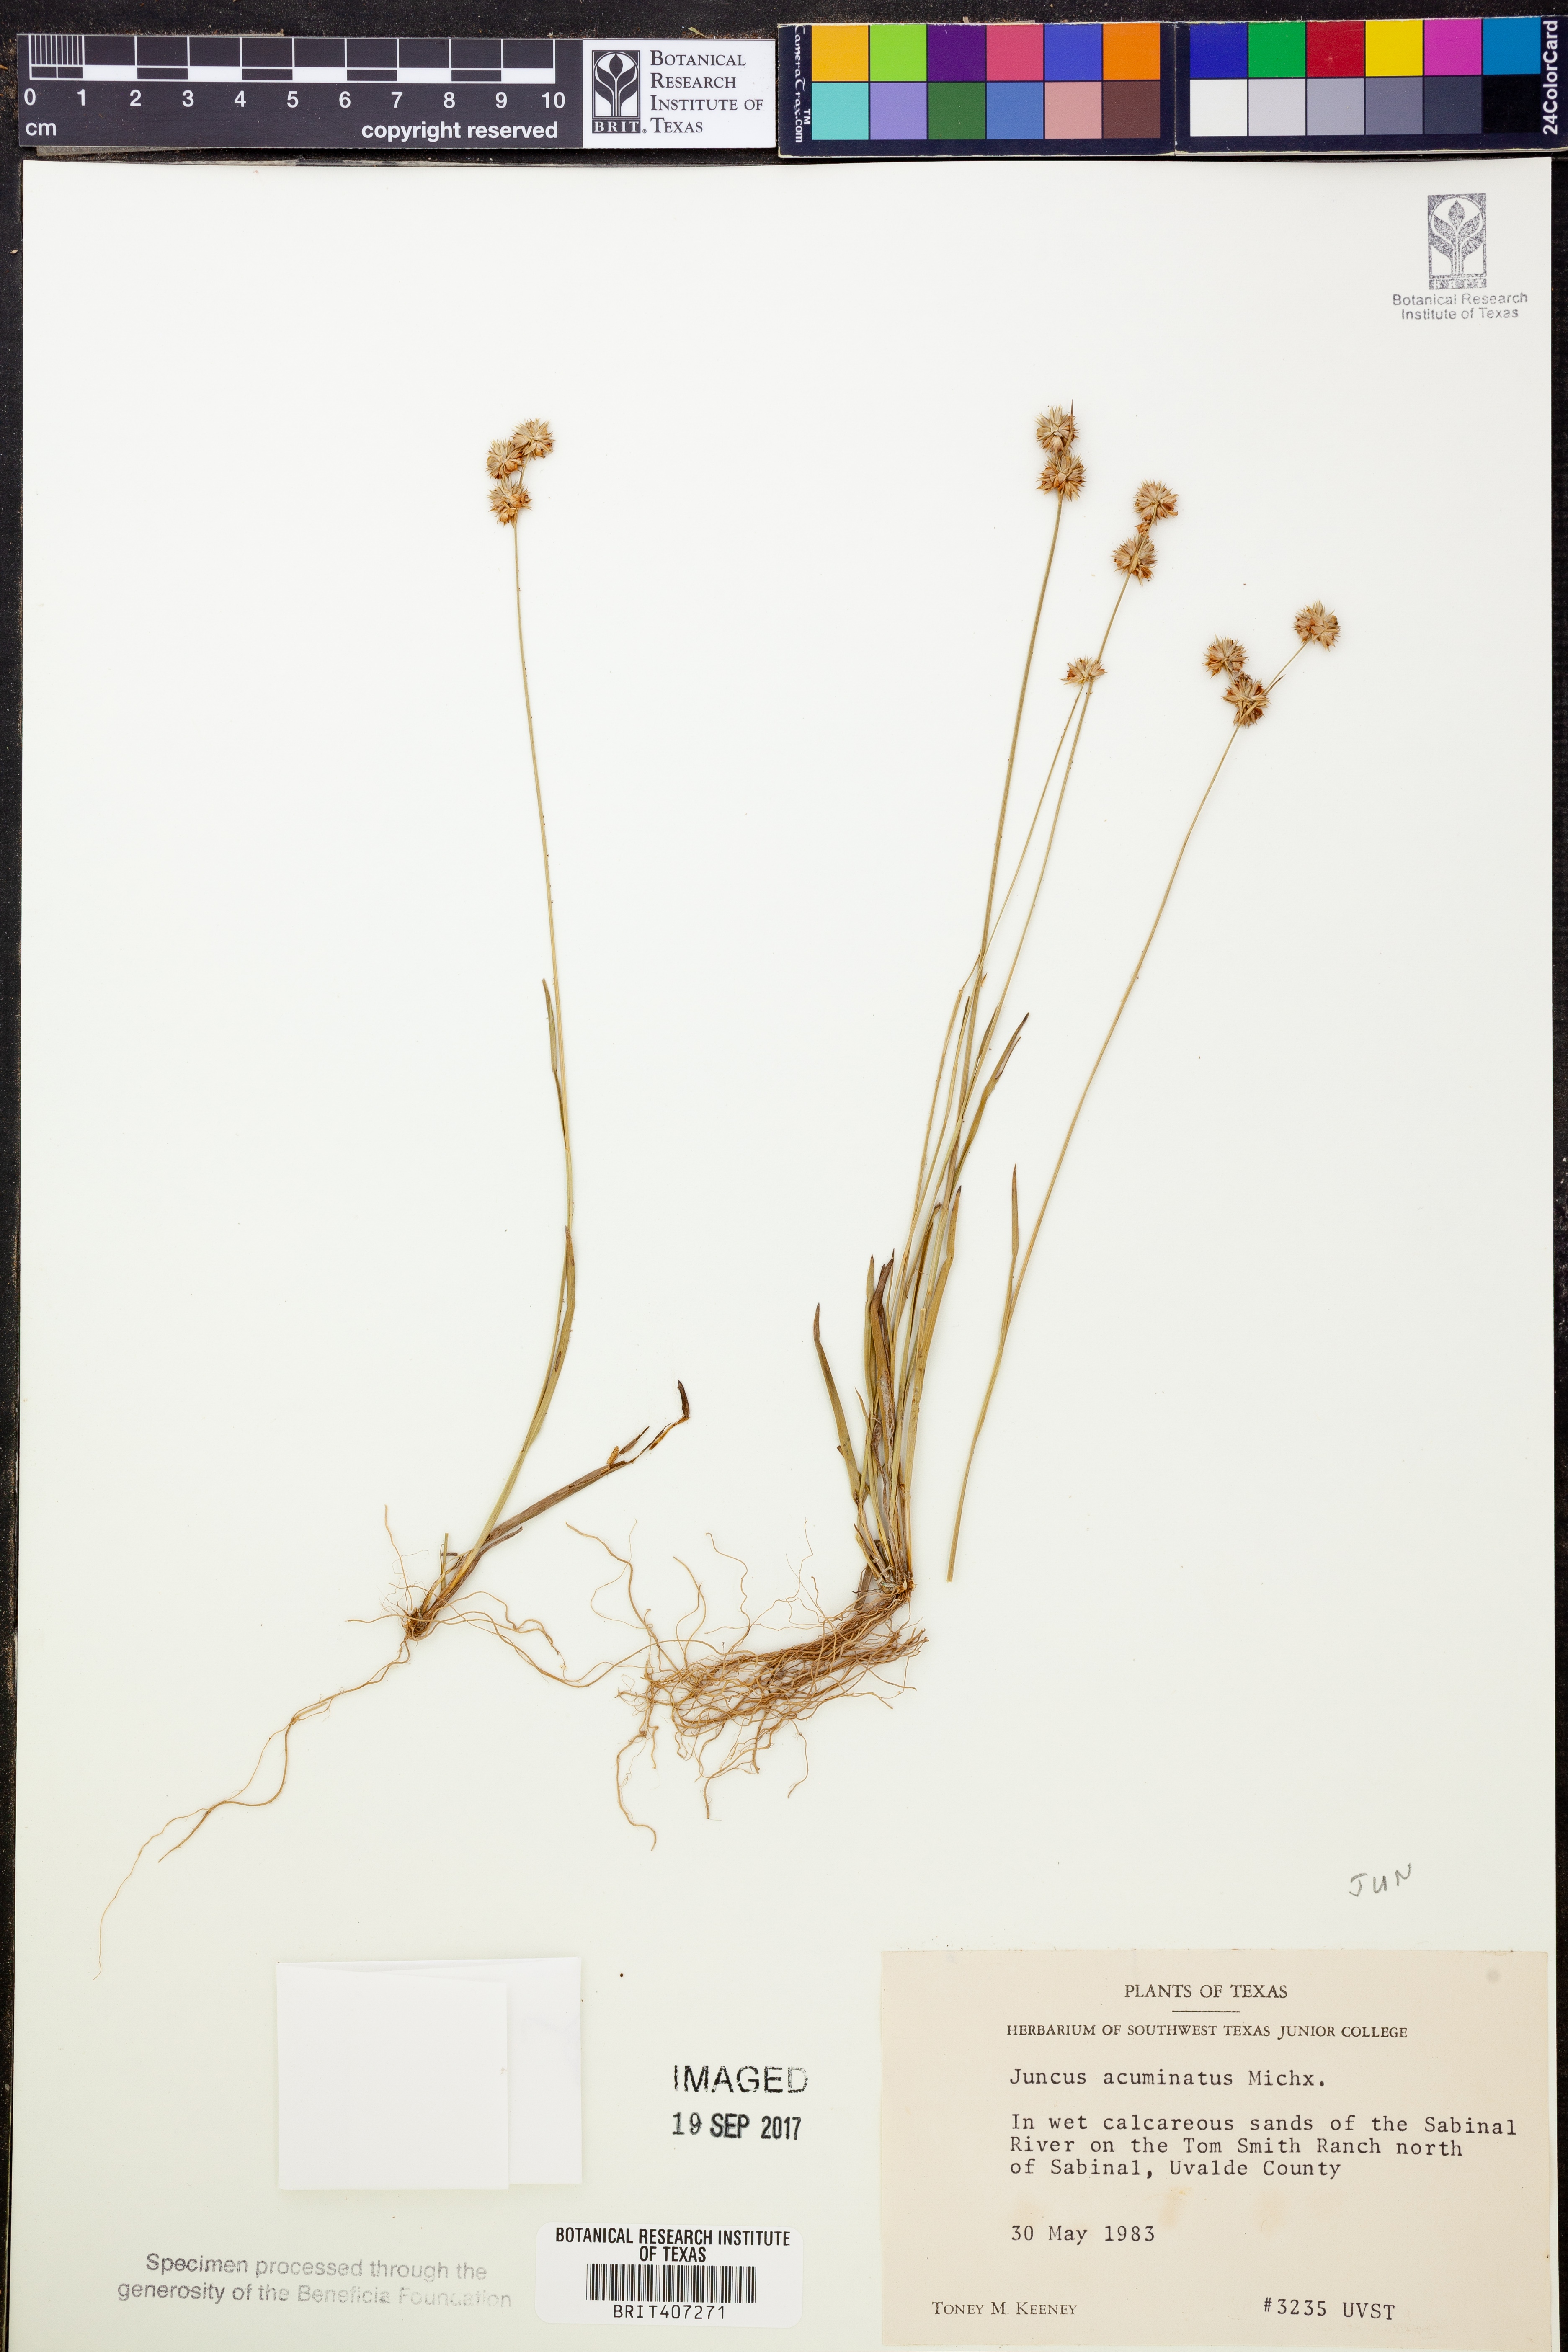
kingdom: Plantae
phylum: Tracheophyta
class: Liliopsida
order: Poales
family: Juncaceae
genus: Juncus
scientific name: Juncus acuminatus
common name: Knotty-leaved rush
